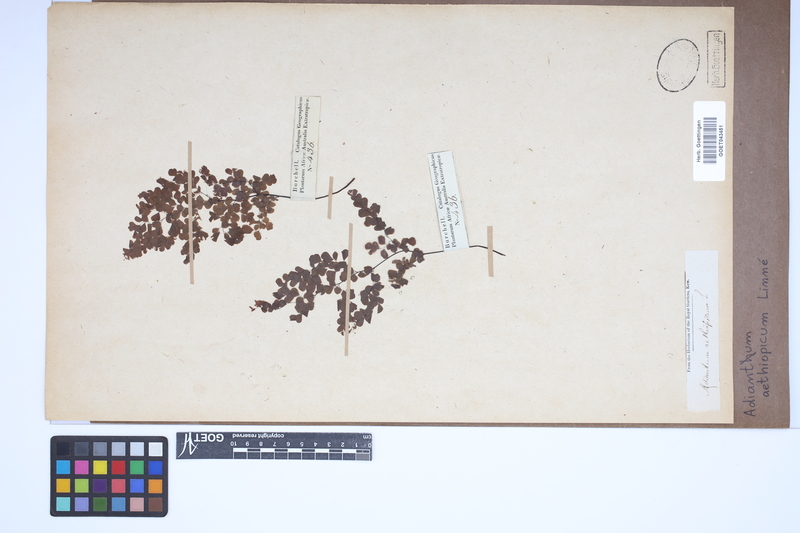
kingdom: Plantae
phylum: Tracheophyta
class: Polypodiopsida
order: Polypodiales
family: Pteridaceae
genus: Adiantum
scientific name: Adiantum aethiopicum
